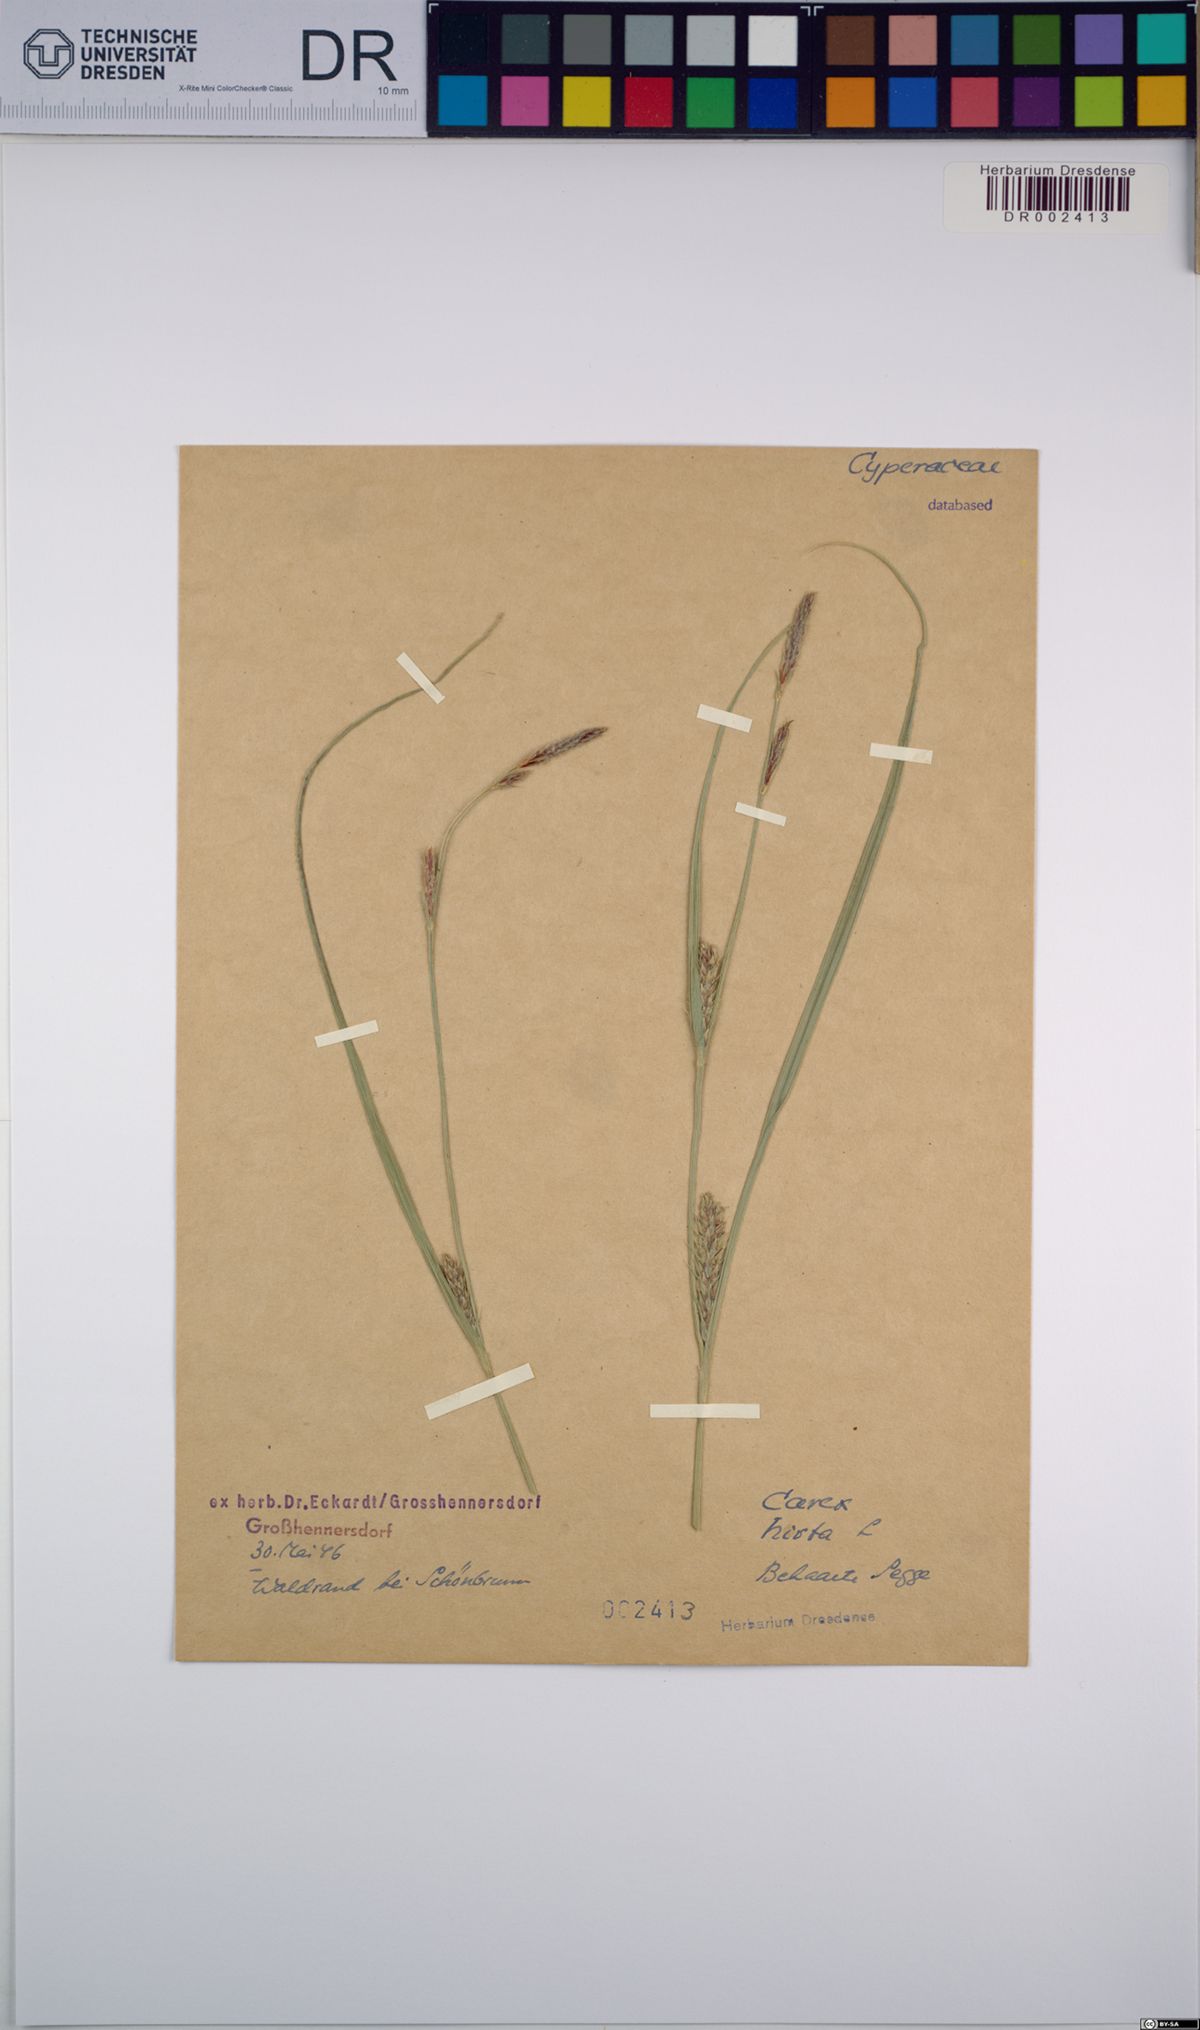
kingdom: Plantae
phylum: Tracheophyta
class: Liliopsida
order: Poales
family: Cyperaceae
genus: Carex
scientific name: Carex hirta
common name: Hairy sedge
